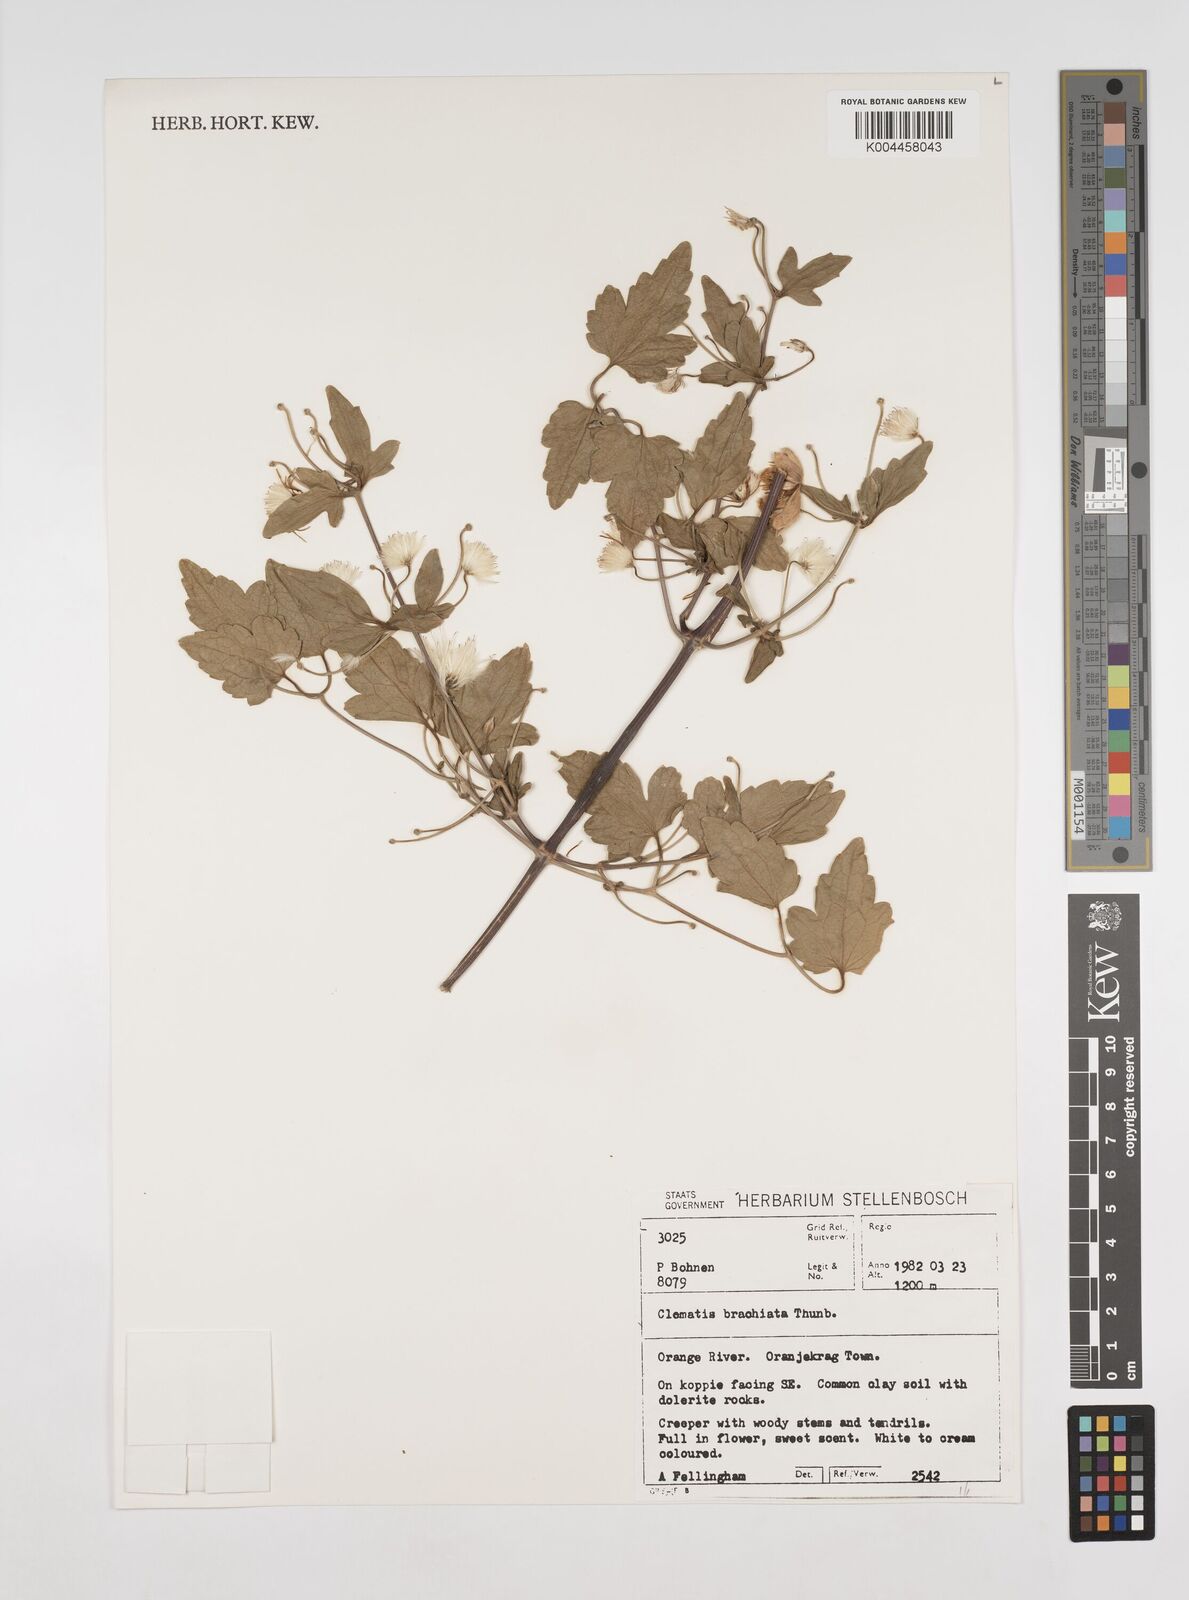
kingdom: Plantae
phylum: Tracheophyta
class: Magnoliopsida
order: Ranunculales
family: Ranunculaceae
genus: Clematis
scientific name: Clematis brachiata
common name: Traveler's-joy
